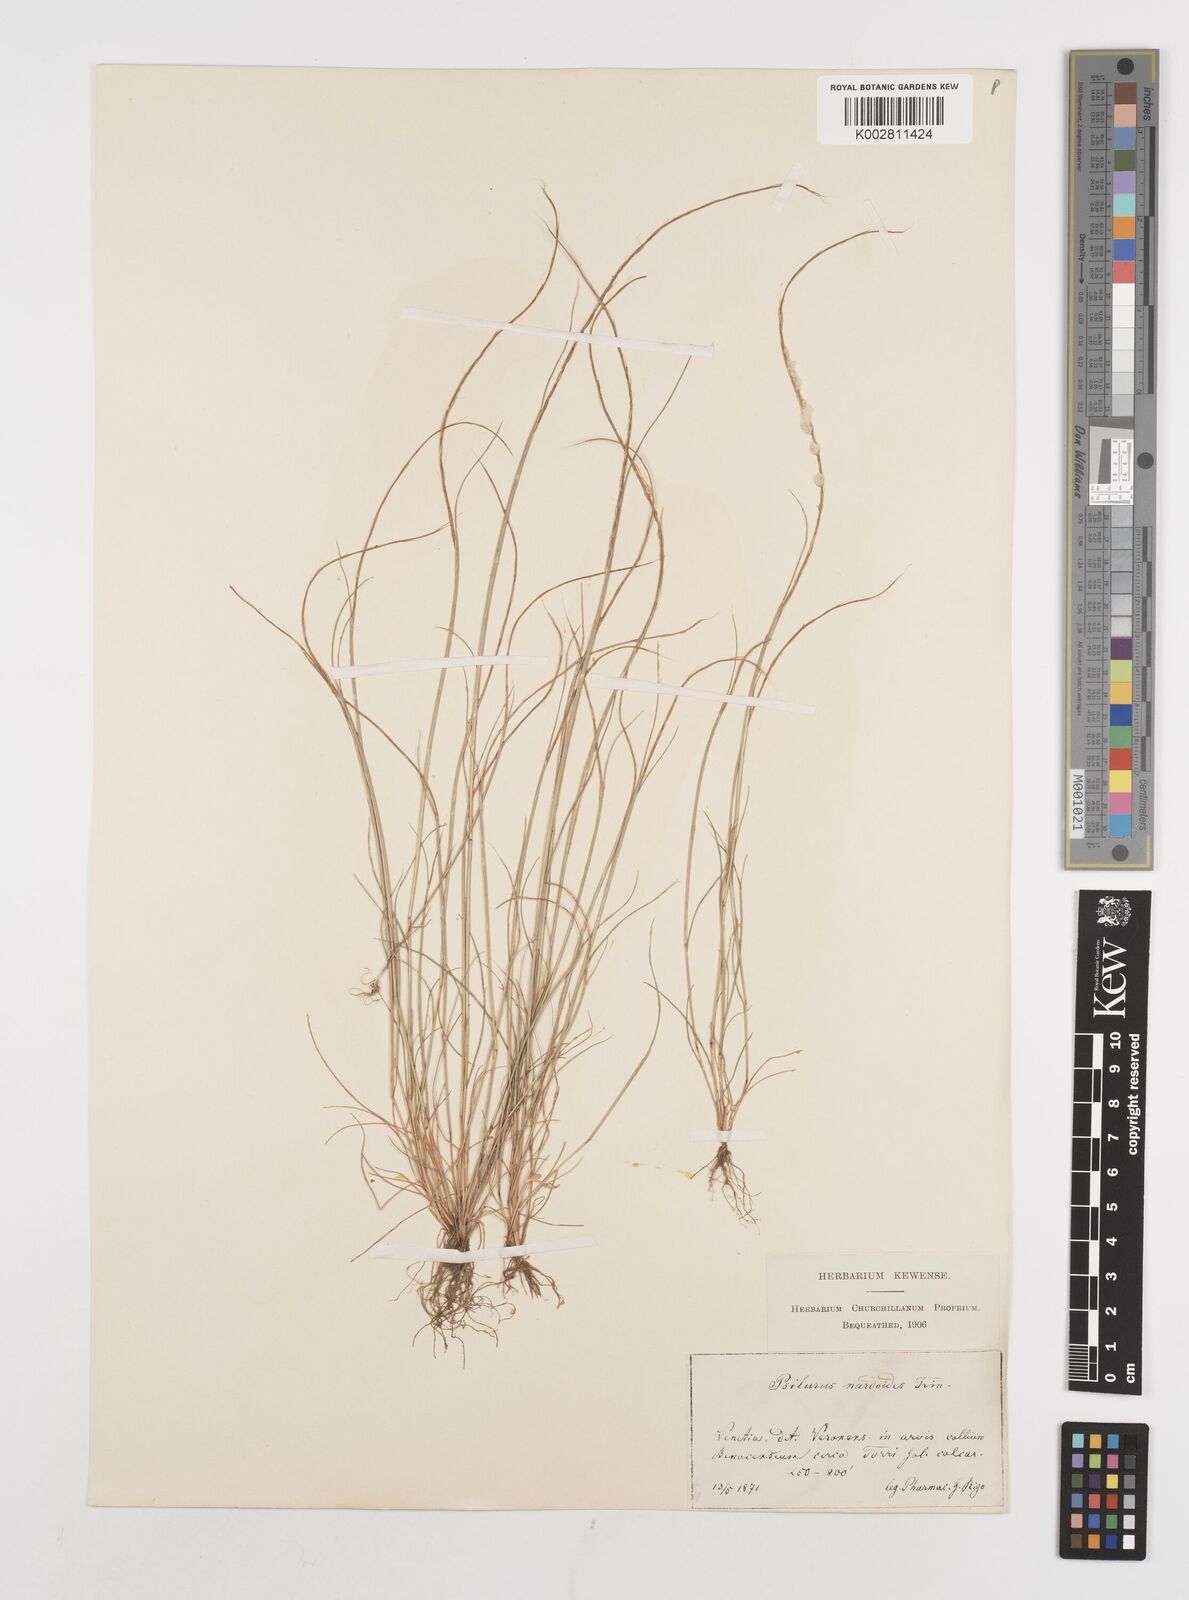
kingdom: Plantae
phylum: Tracheophyta
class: Liliopsida
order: Poales
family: Poaceae
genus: Festuca
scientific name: Festuca incurva
